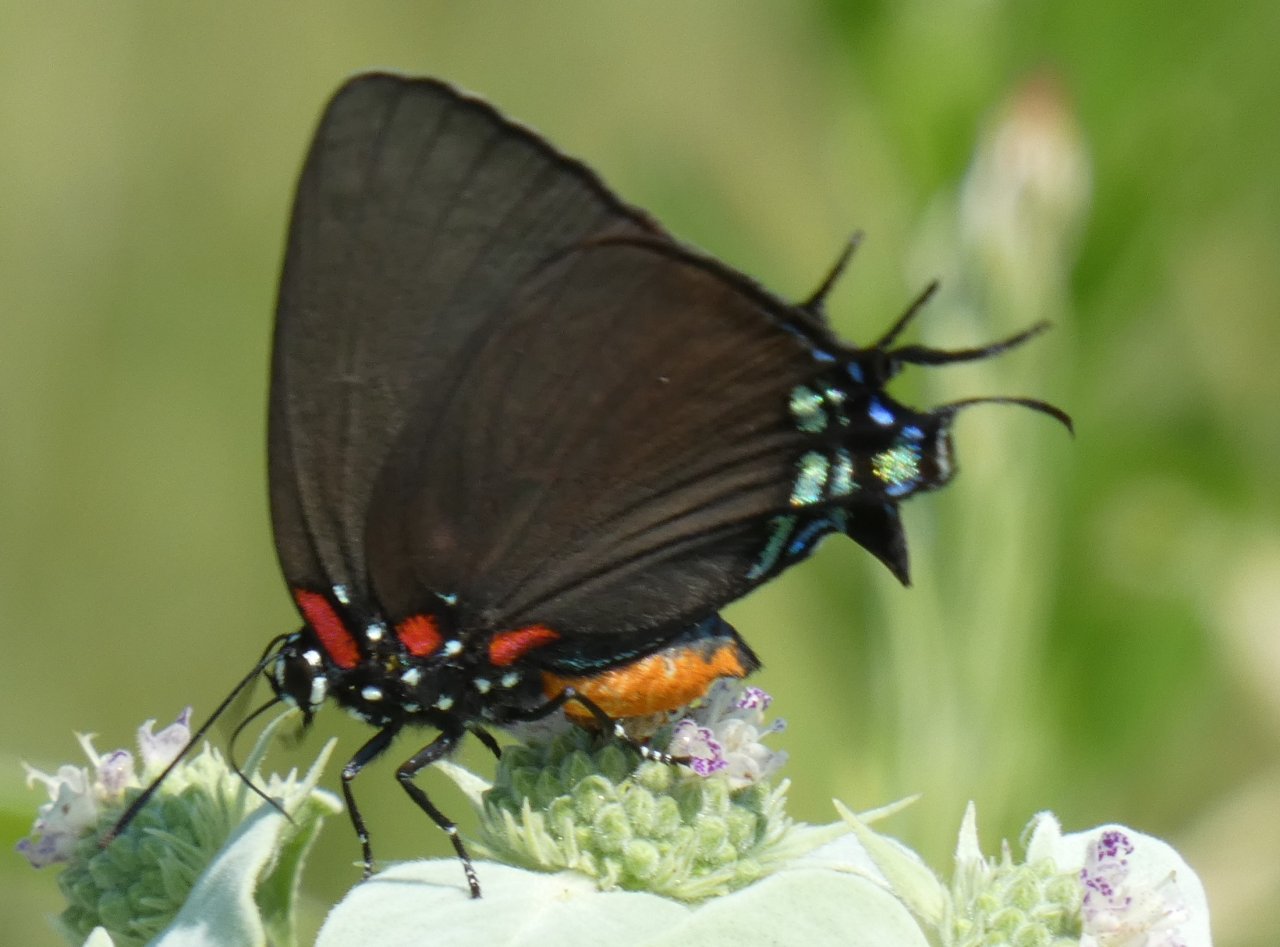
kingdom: Animalia
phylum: Arthropoda
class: Insecta
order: Lepidoptera
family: Lycaenidae
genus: Atlides
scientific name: Atlides halesus
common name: Great Purple Hairstreak
